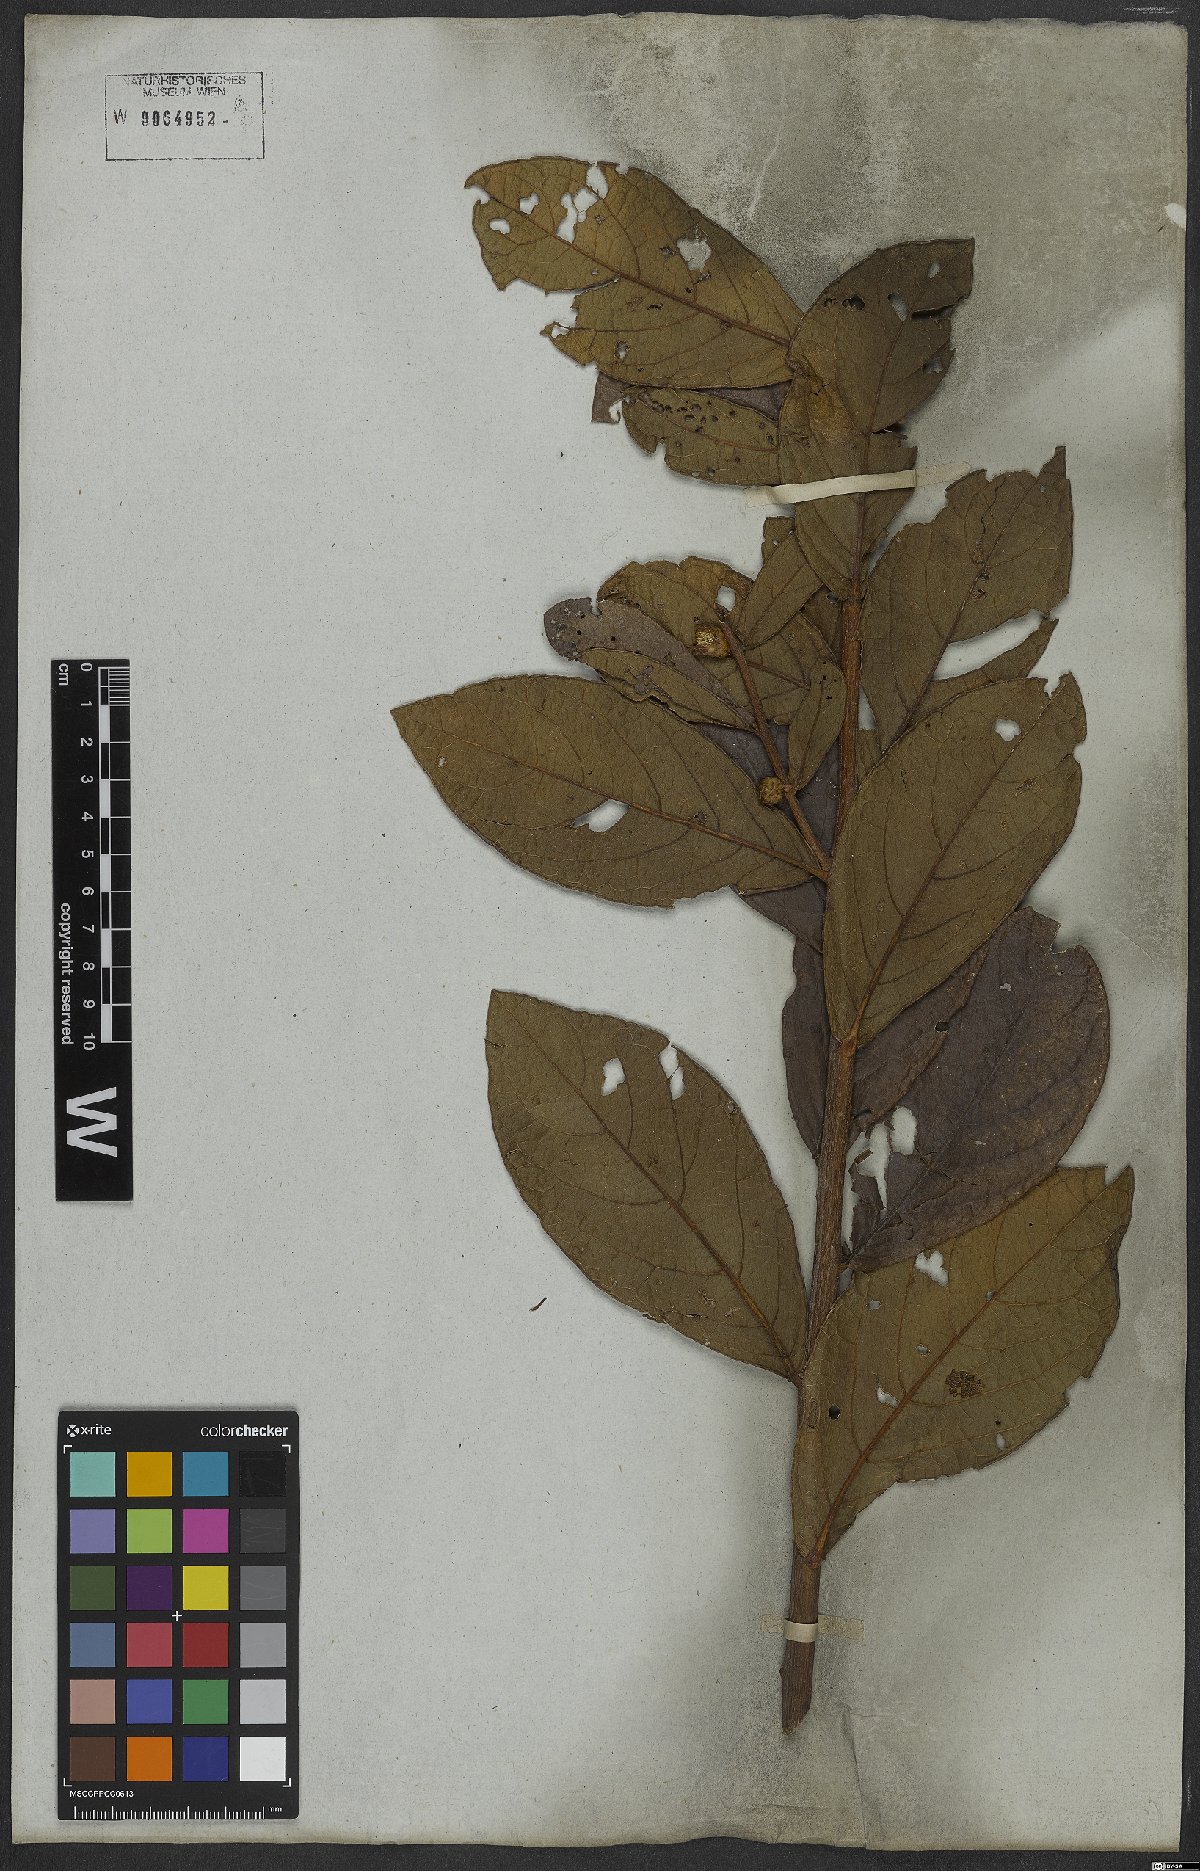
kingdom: Plantae
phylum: Tracheophyta
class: Magnoliopsida
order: Asterales
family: Asteraceae
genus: Lessingianthus
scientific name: Lessingianthus zuccarinianus
